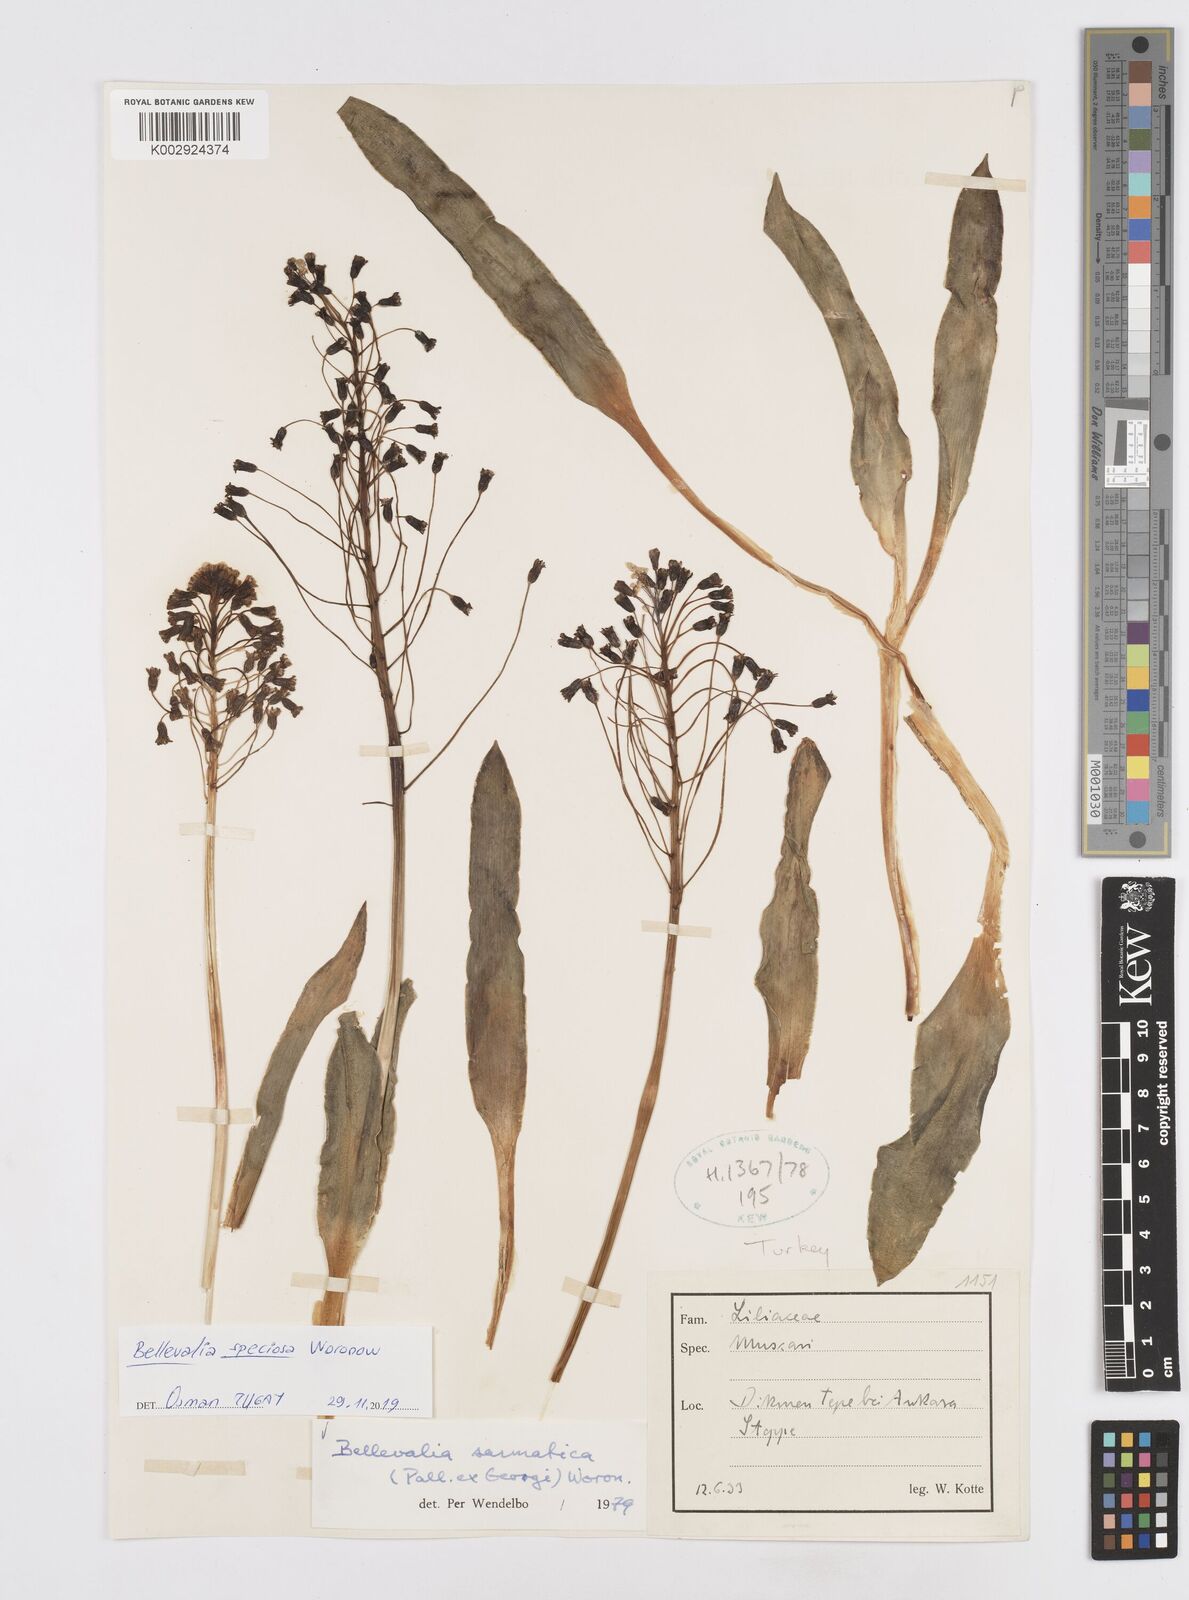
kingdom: Plantae
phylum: Tracheophyta
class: Liliopsida
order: Asparagales
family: Asparagaceae
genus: Bellevalia
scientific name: Bellevalia speciosa
